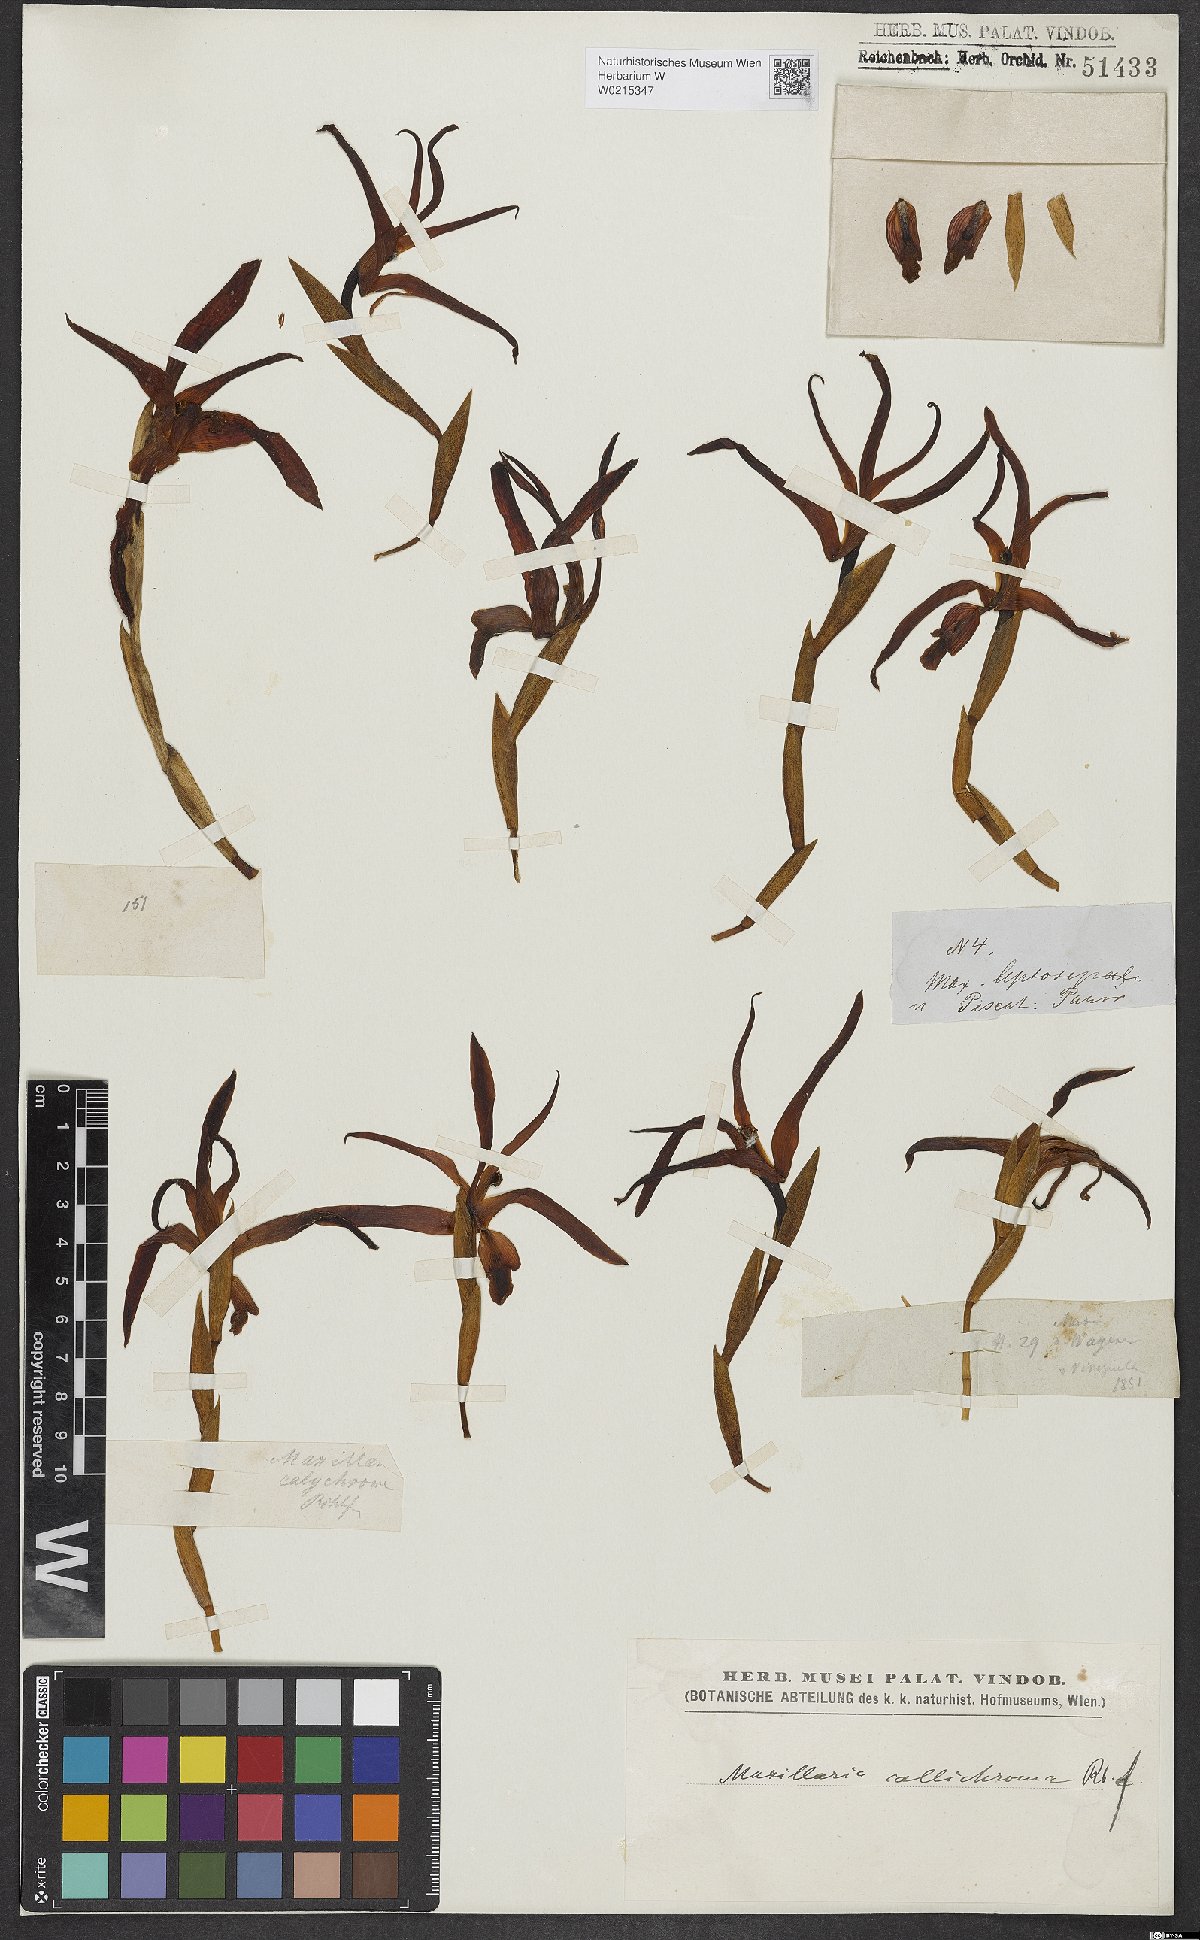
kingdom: Plantae
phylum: Tracheophyta
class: Liliopsida
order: Asparagales
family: Orchidaceae
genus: Maxillaria
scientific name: Maxillaria callichroma
